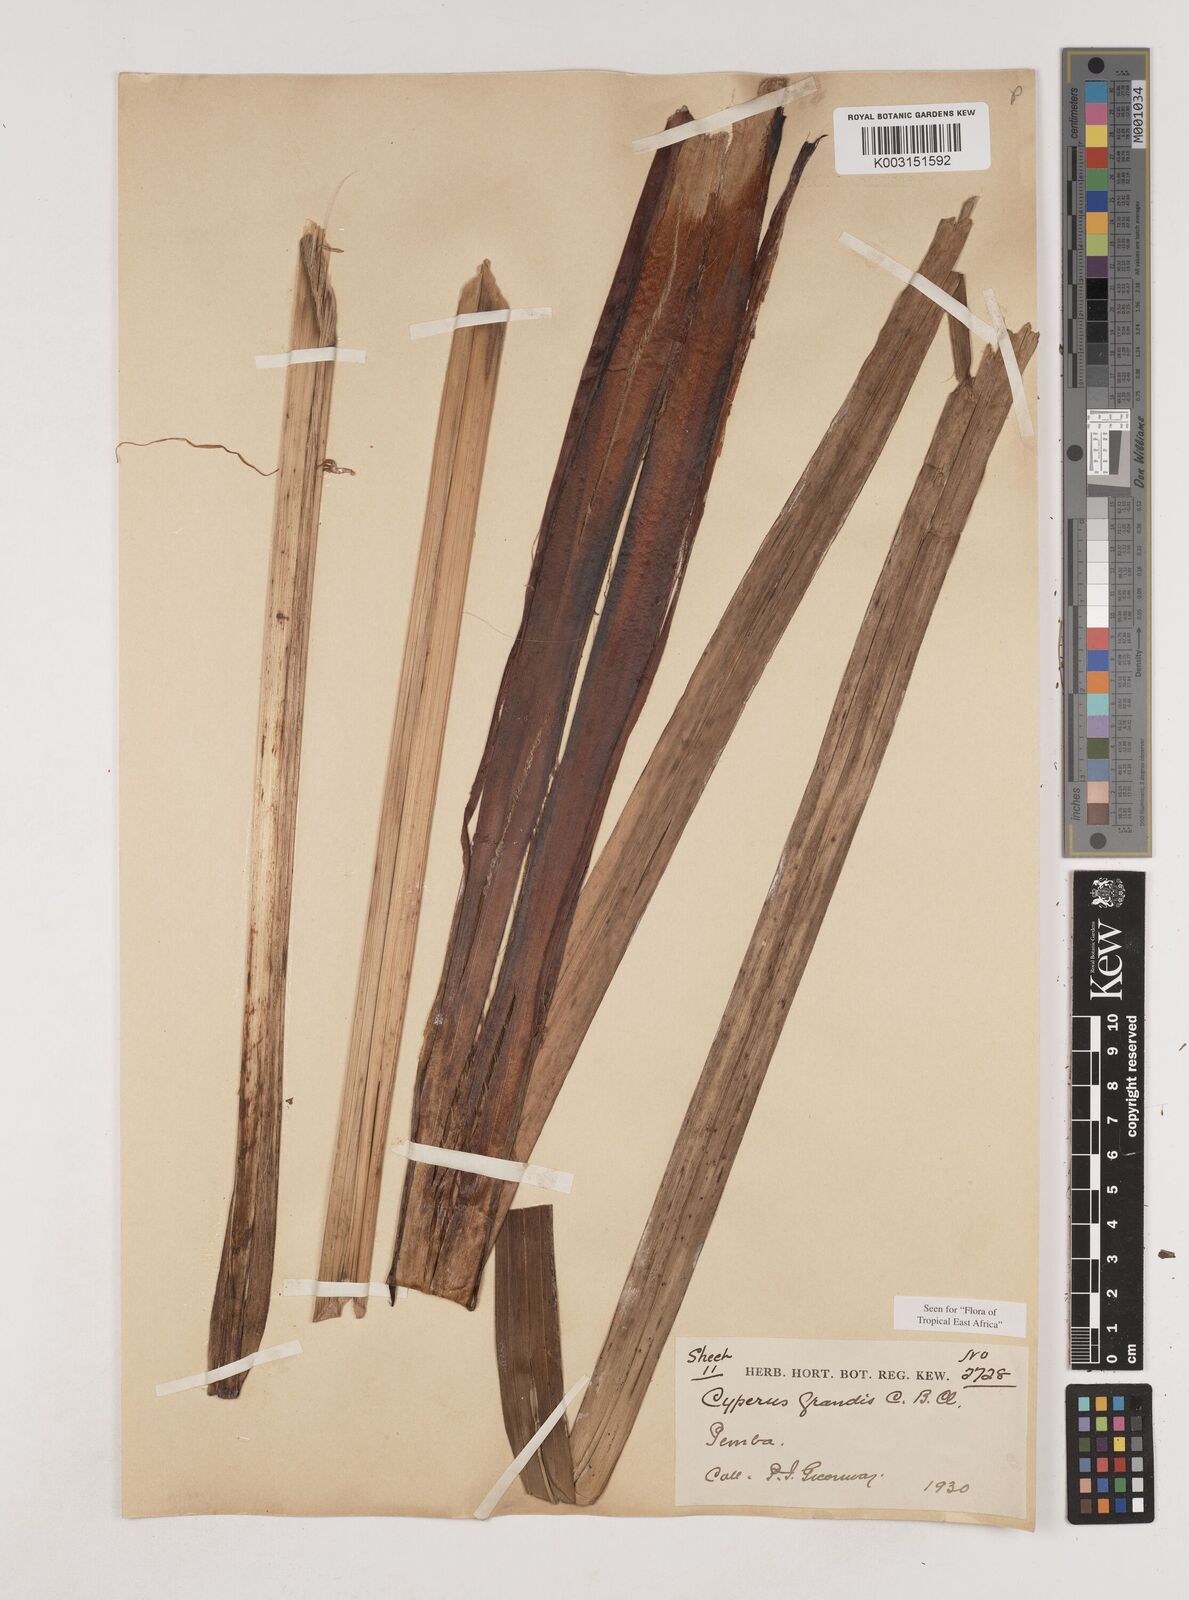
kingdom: Plantae
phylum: Tracheophyta
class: Liliopsida
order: Poales
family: Cyperaceae
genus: Cyperus
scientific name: Cyperus grandis
